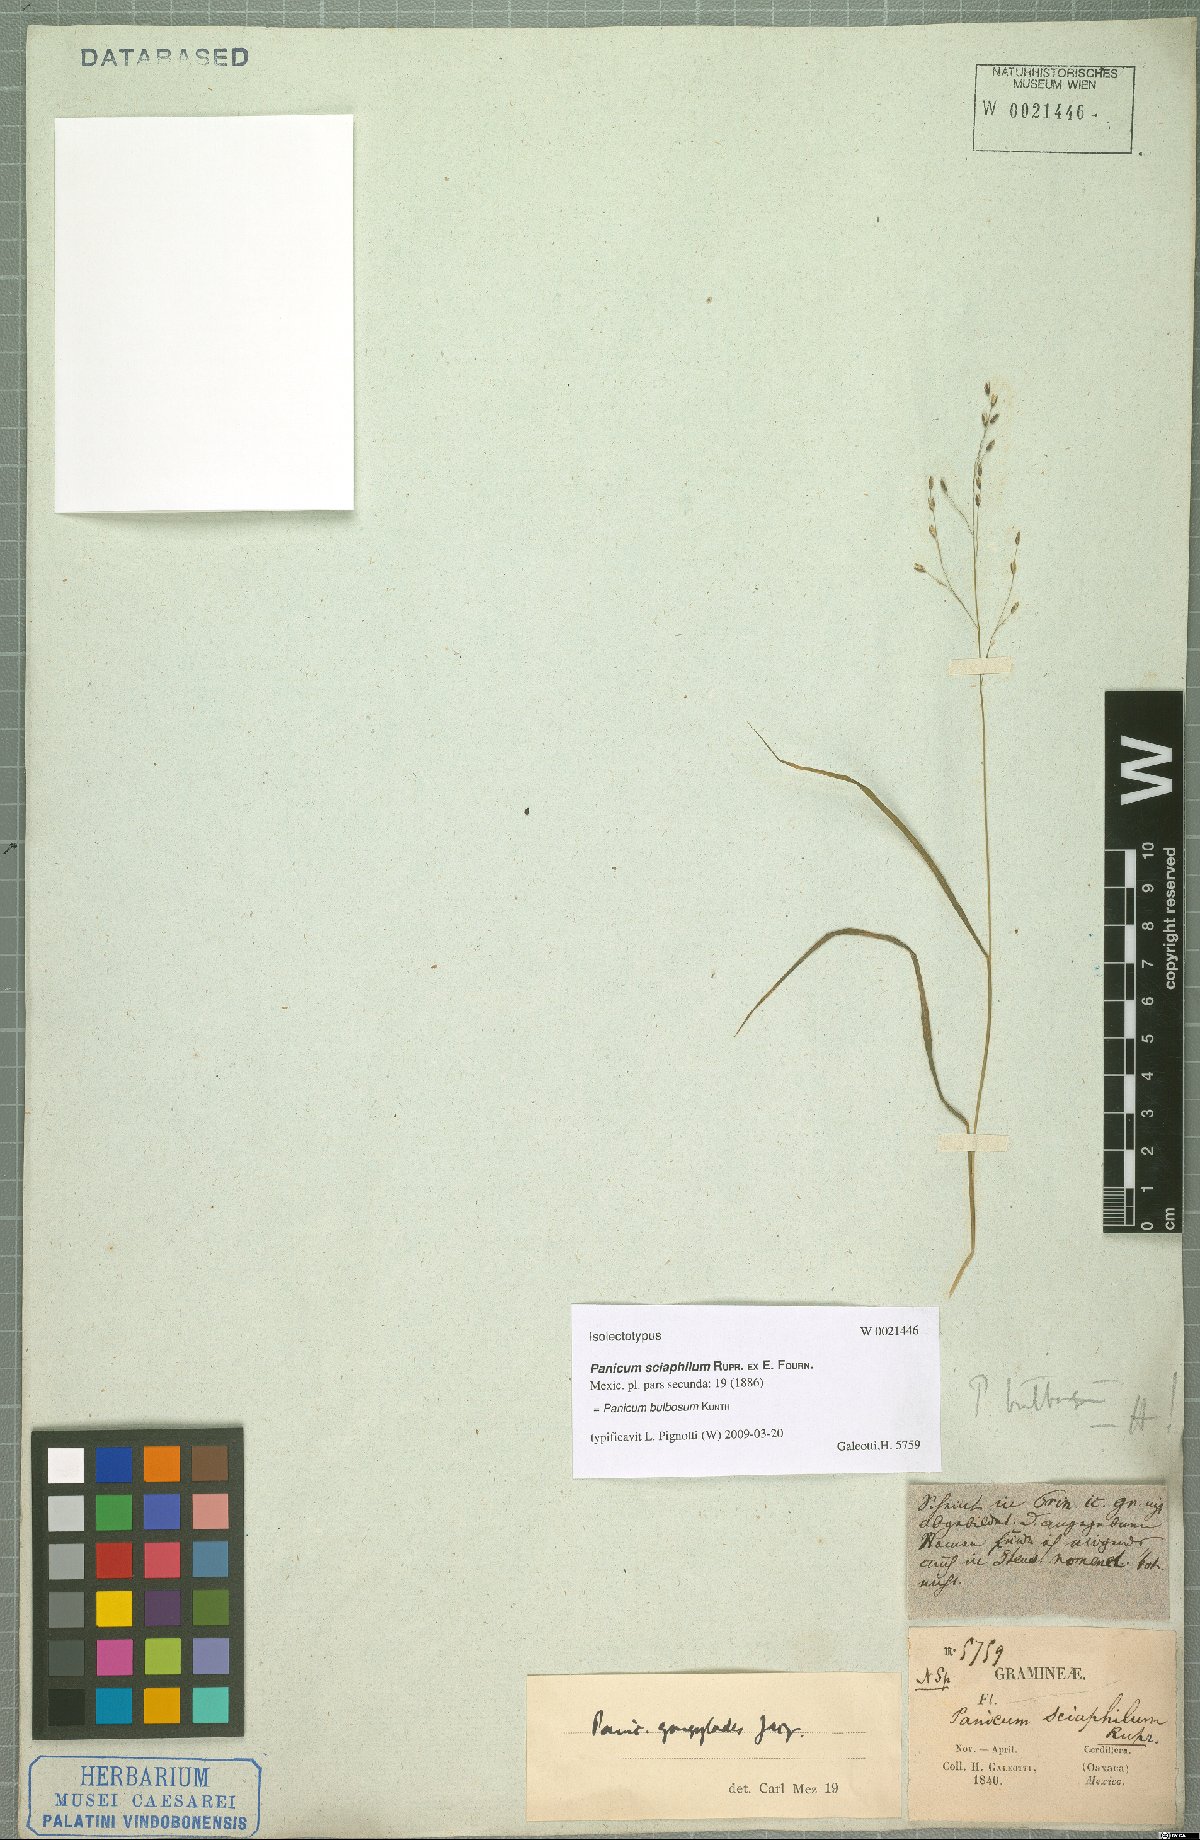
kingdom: Plantae
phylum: Tracheophyta
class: Liliopsida
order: Poales
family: Poaceae
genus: Zuloagaea
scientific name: Zuloagaea bulbosa
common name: Canyon panic grass
